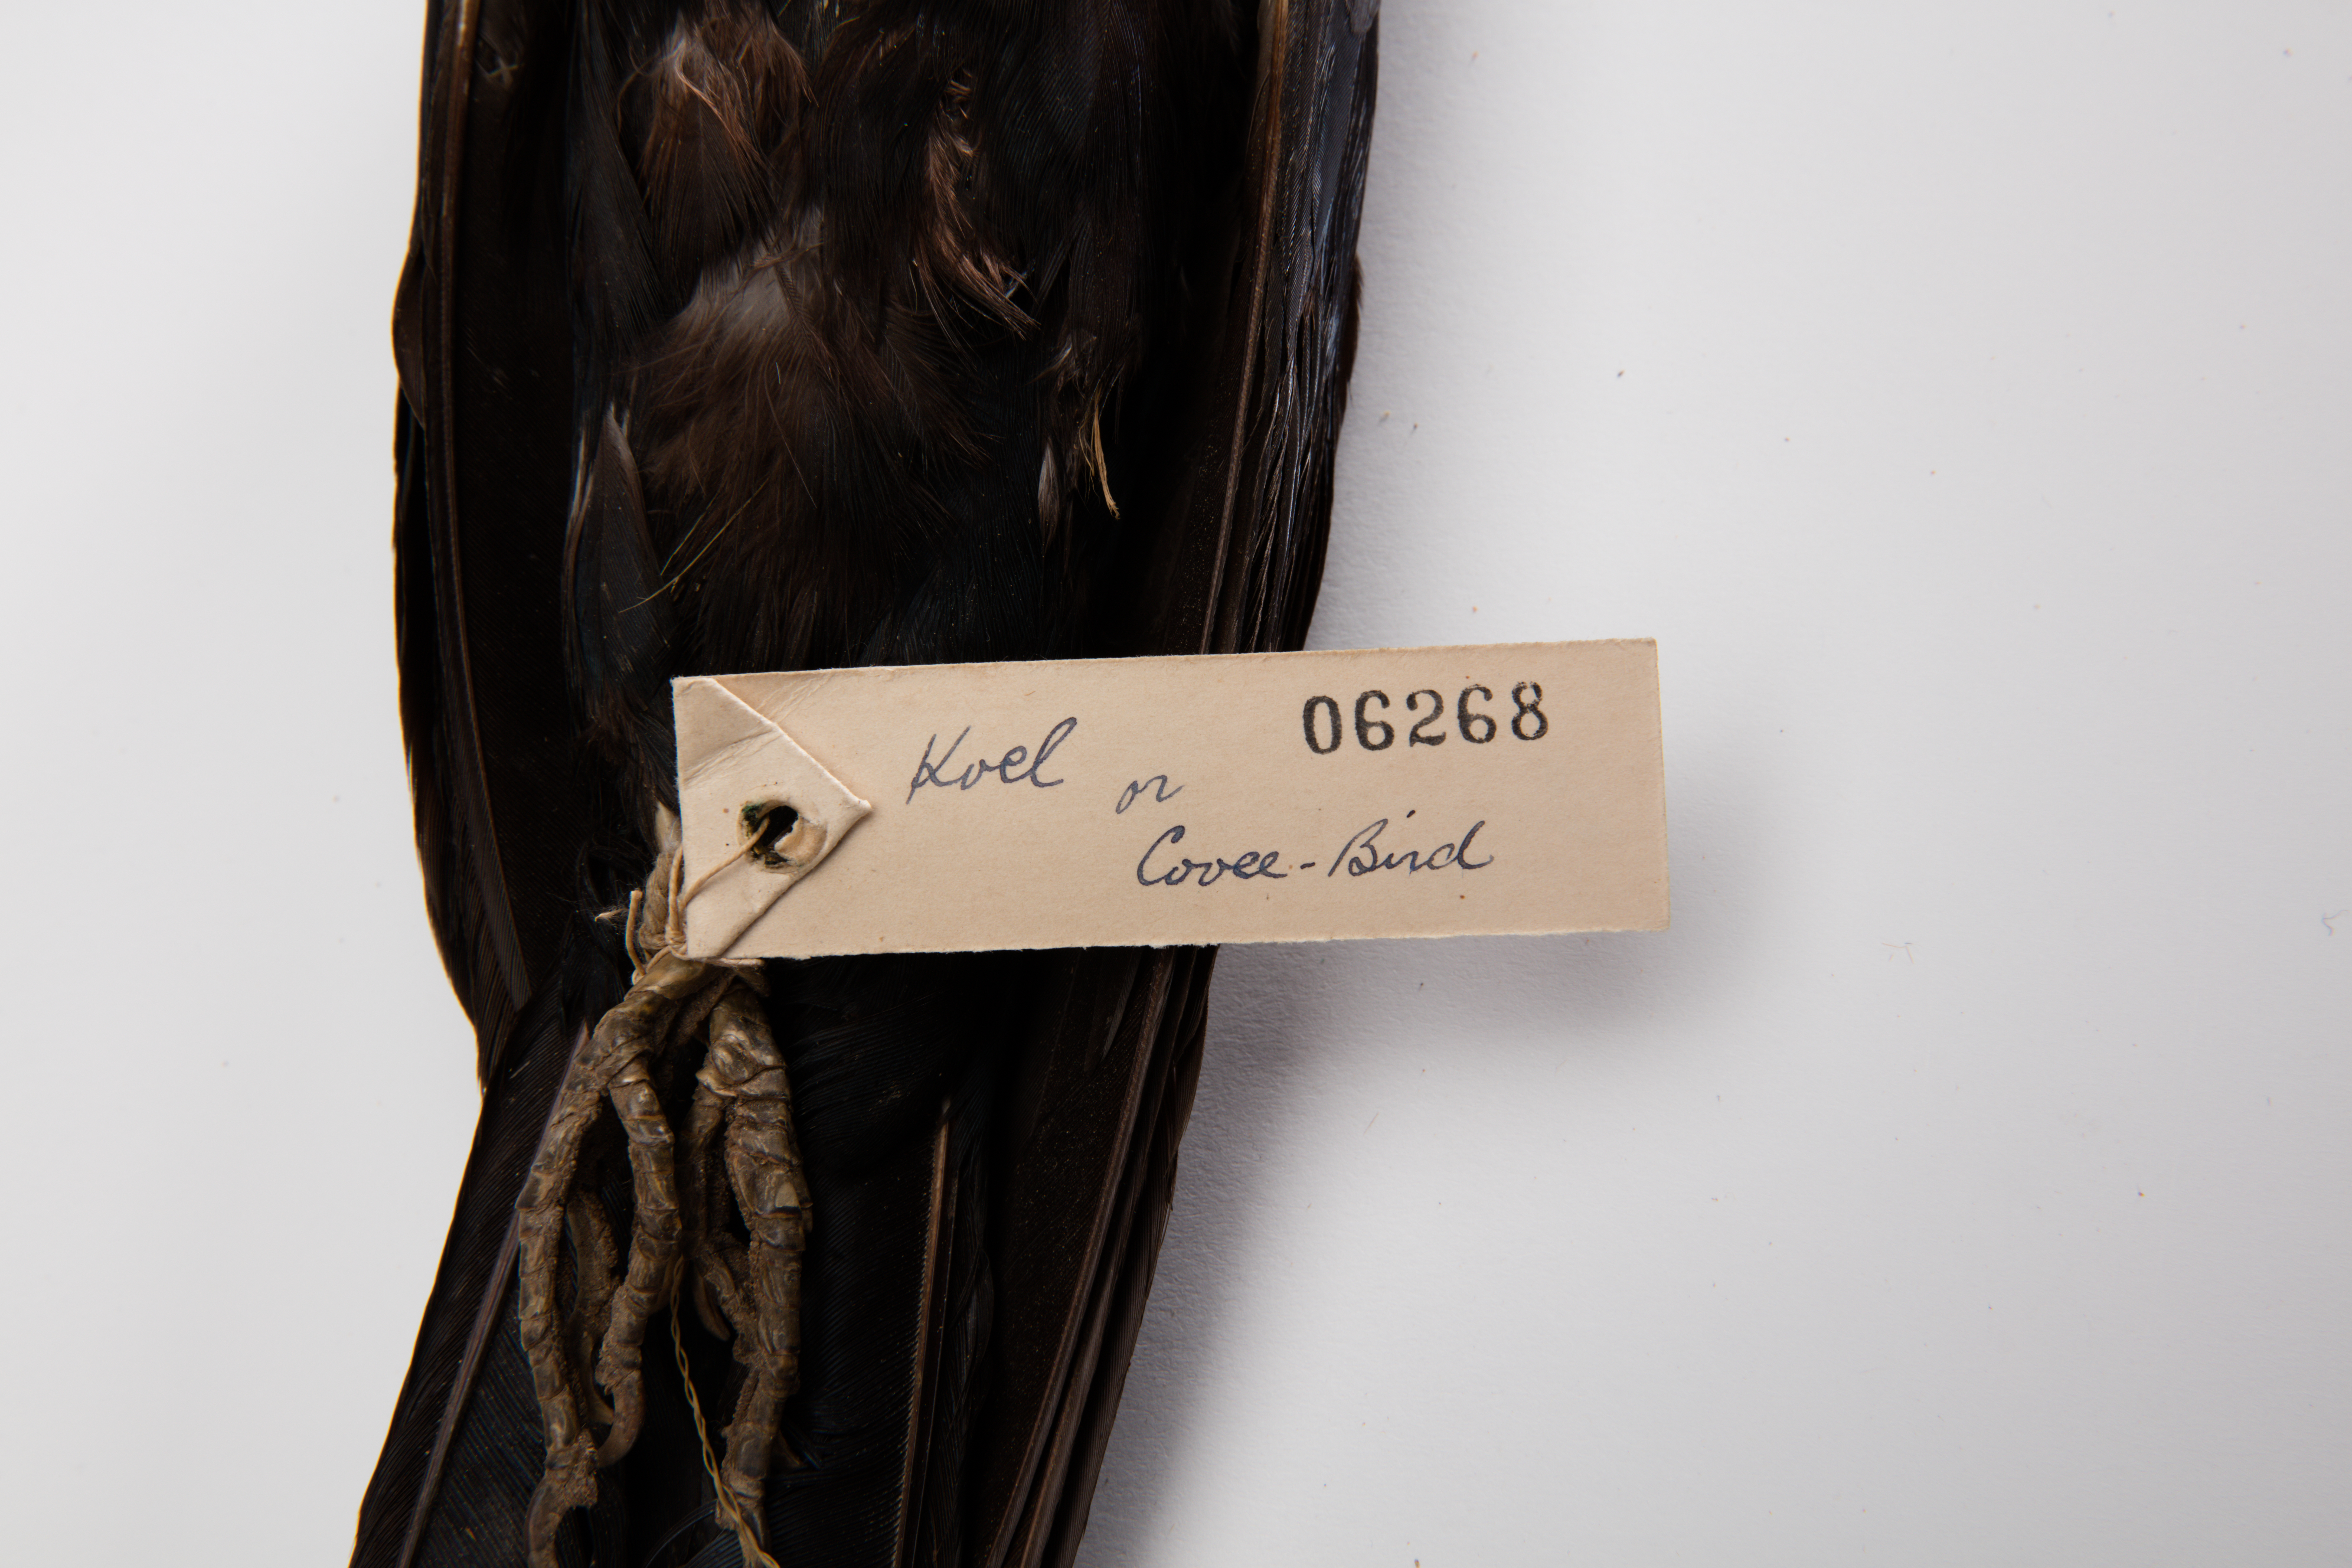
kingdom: Animalia
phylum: Chordata
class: Aves
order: Cuculiformes
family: Cuculidae
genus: Eudynamys
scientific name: Eudynamys scolopaceus
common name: Asian koel
